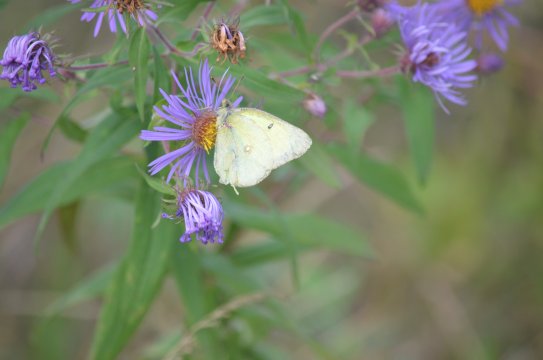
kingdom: Animalia
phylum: Arthropoda
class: Insecta
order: Lepidoptera
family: Pieridae
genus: Colias
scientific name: Colias philodice
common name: Clouded Sulphur
